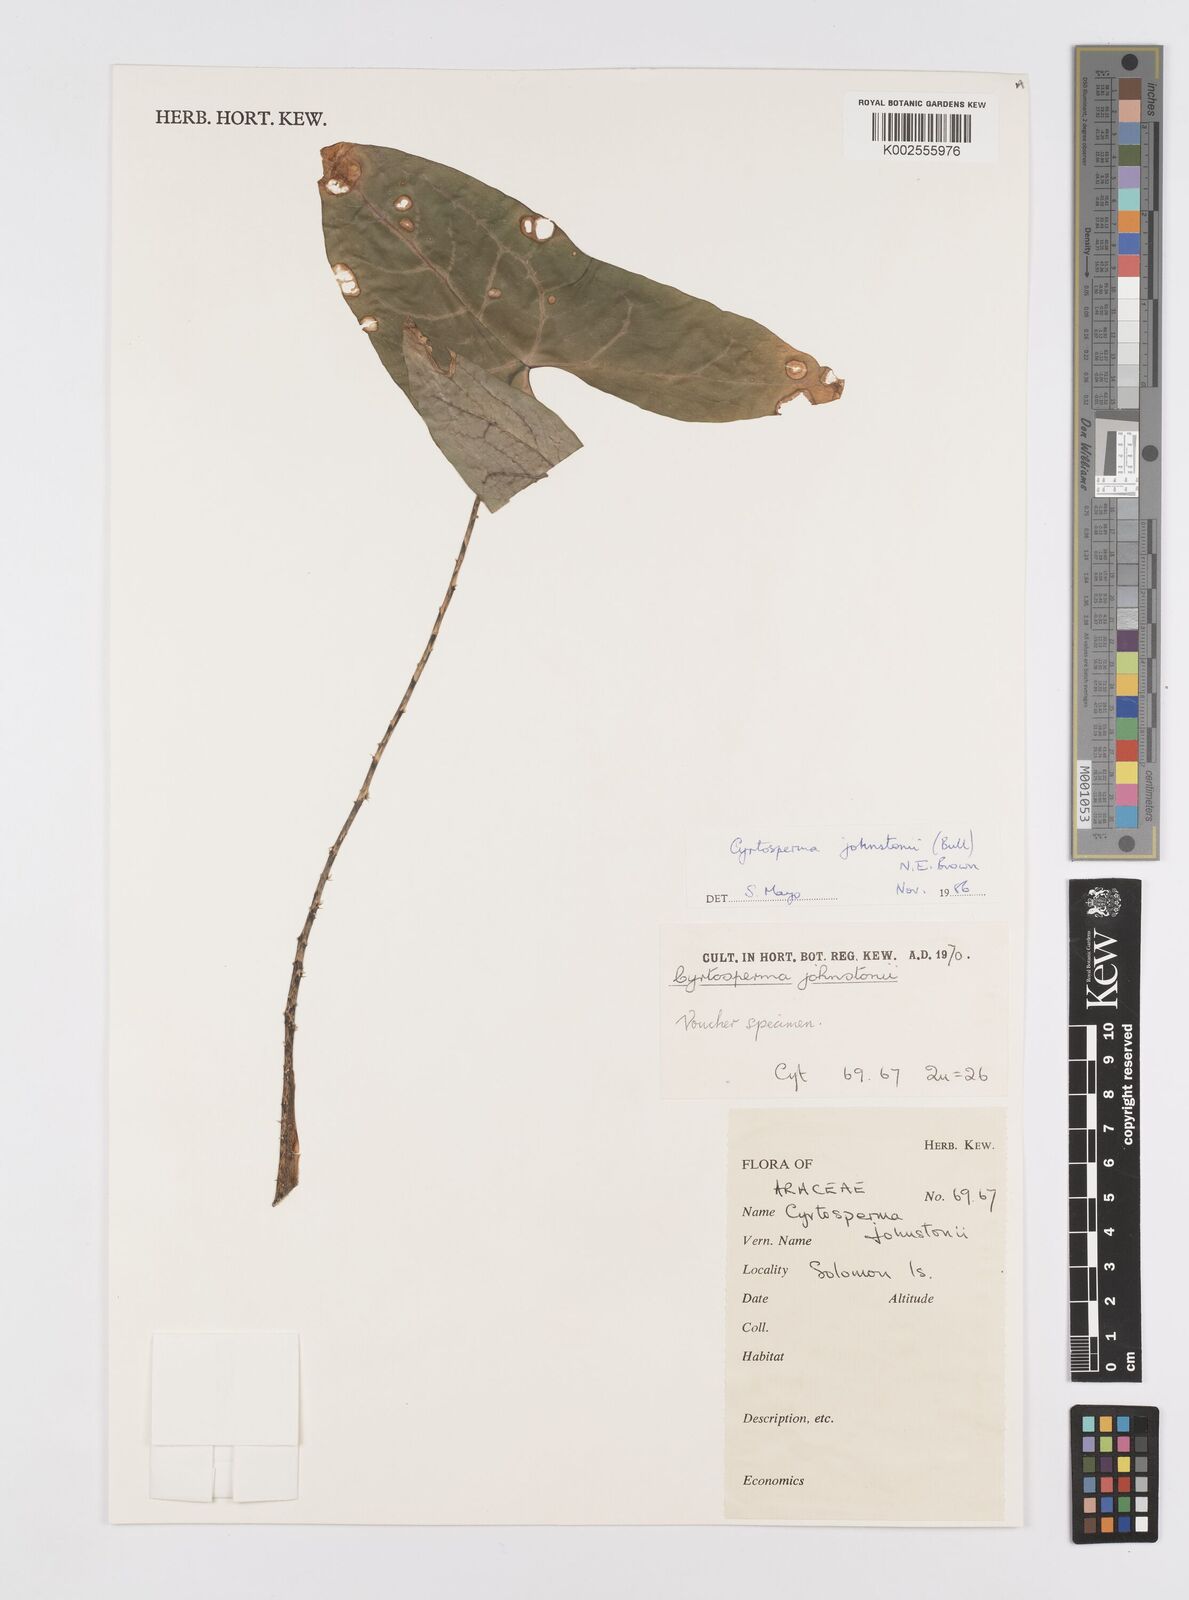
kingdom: Plantae
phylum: Tracheophyta
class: Liliopsida
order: Alismatales
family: Araceae
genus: Cyrtosperma
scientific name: Cyrtosperma johnstonii
